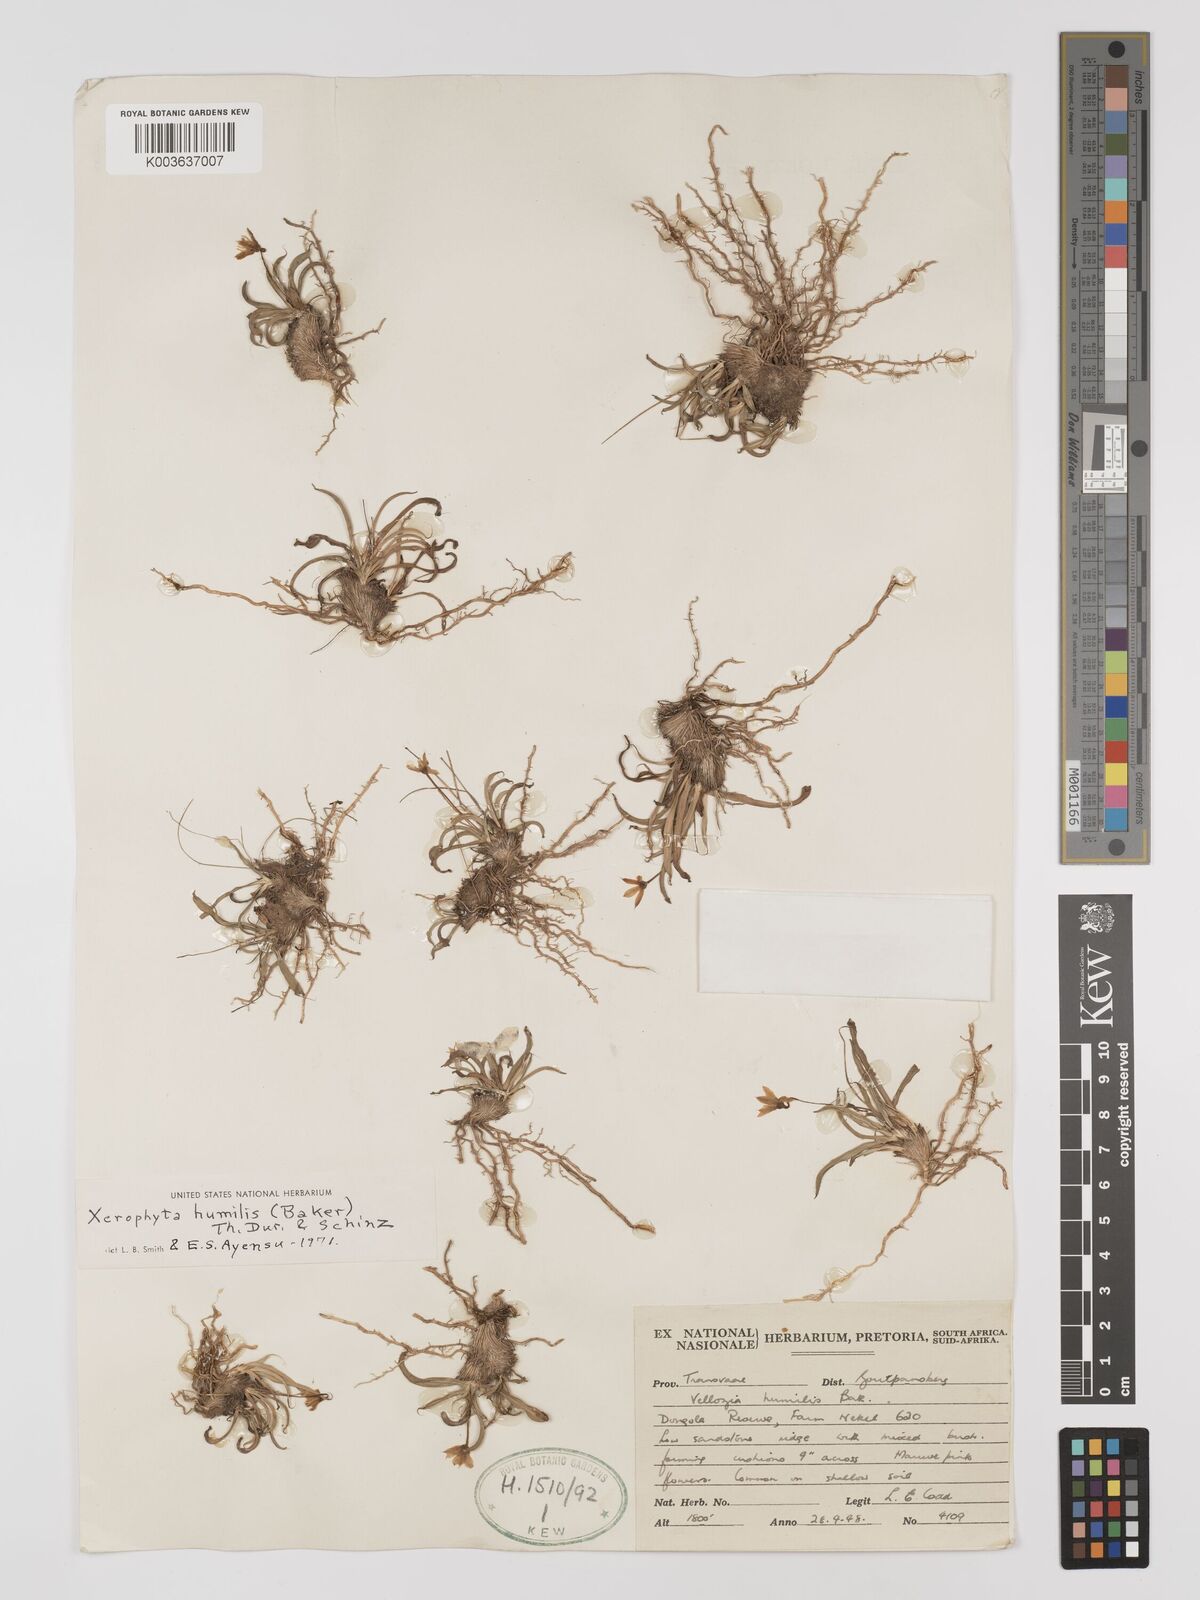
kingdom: Plantae
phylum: Tracheophyta
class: Liliopsida
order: Pandanales
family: Velloziaceae
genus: Xerophyta
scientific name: Xerophyta humilis
